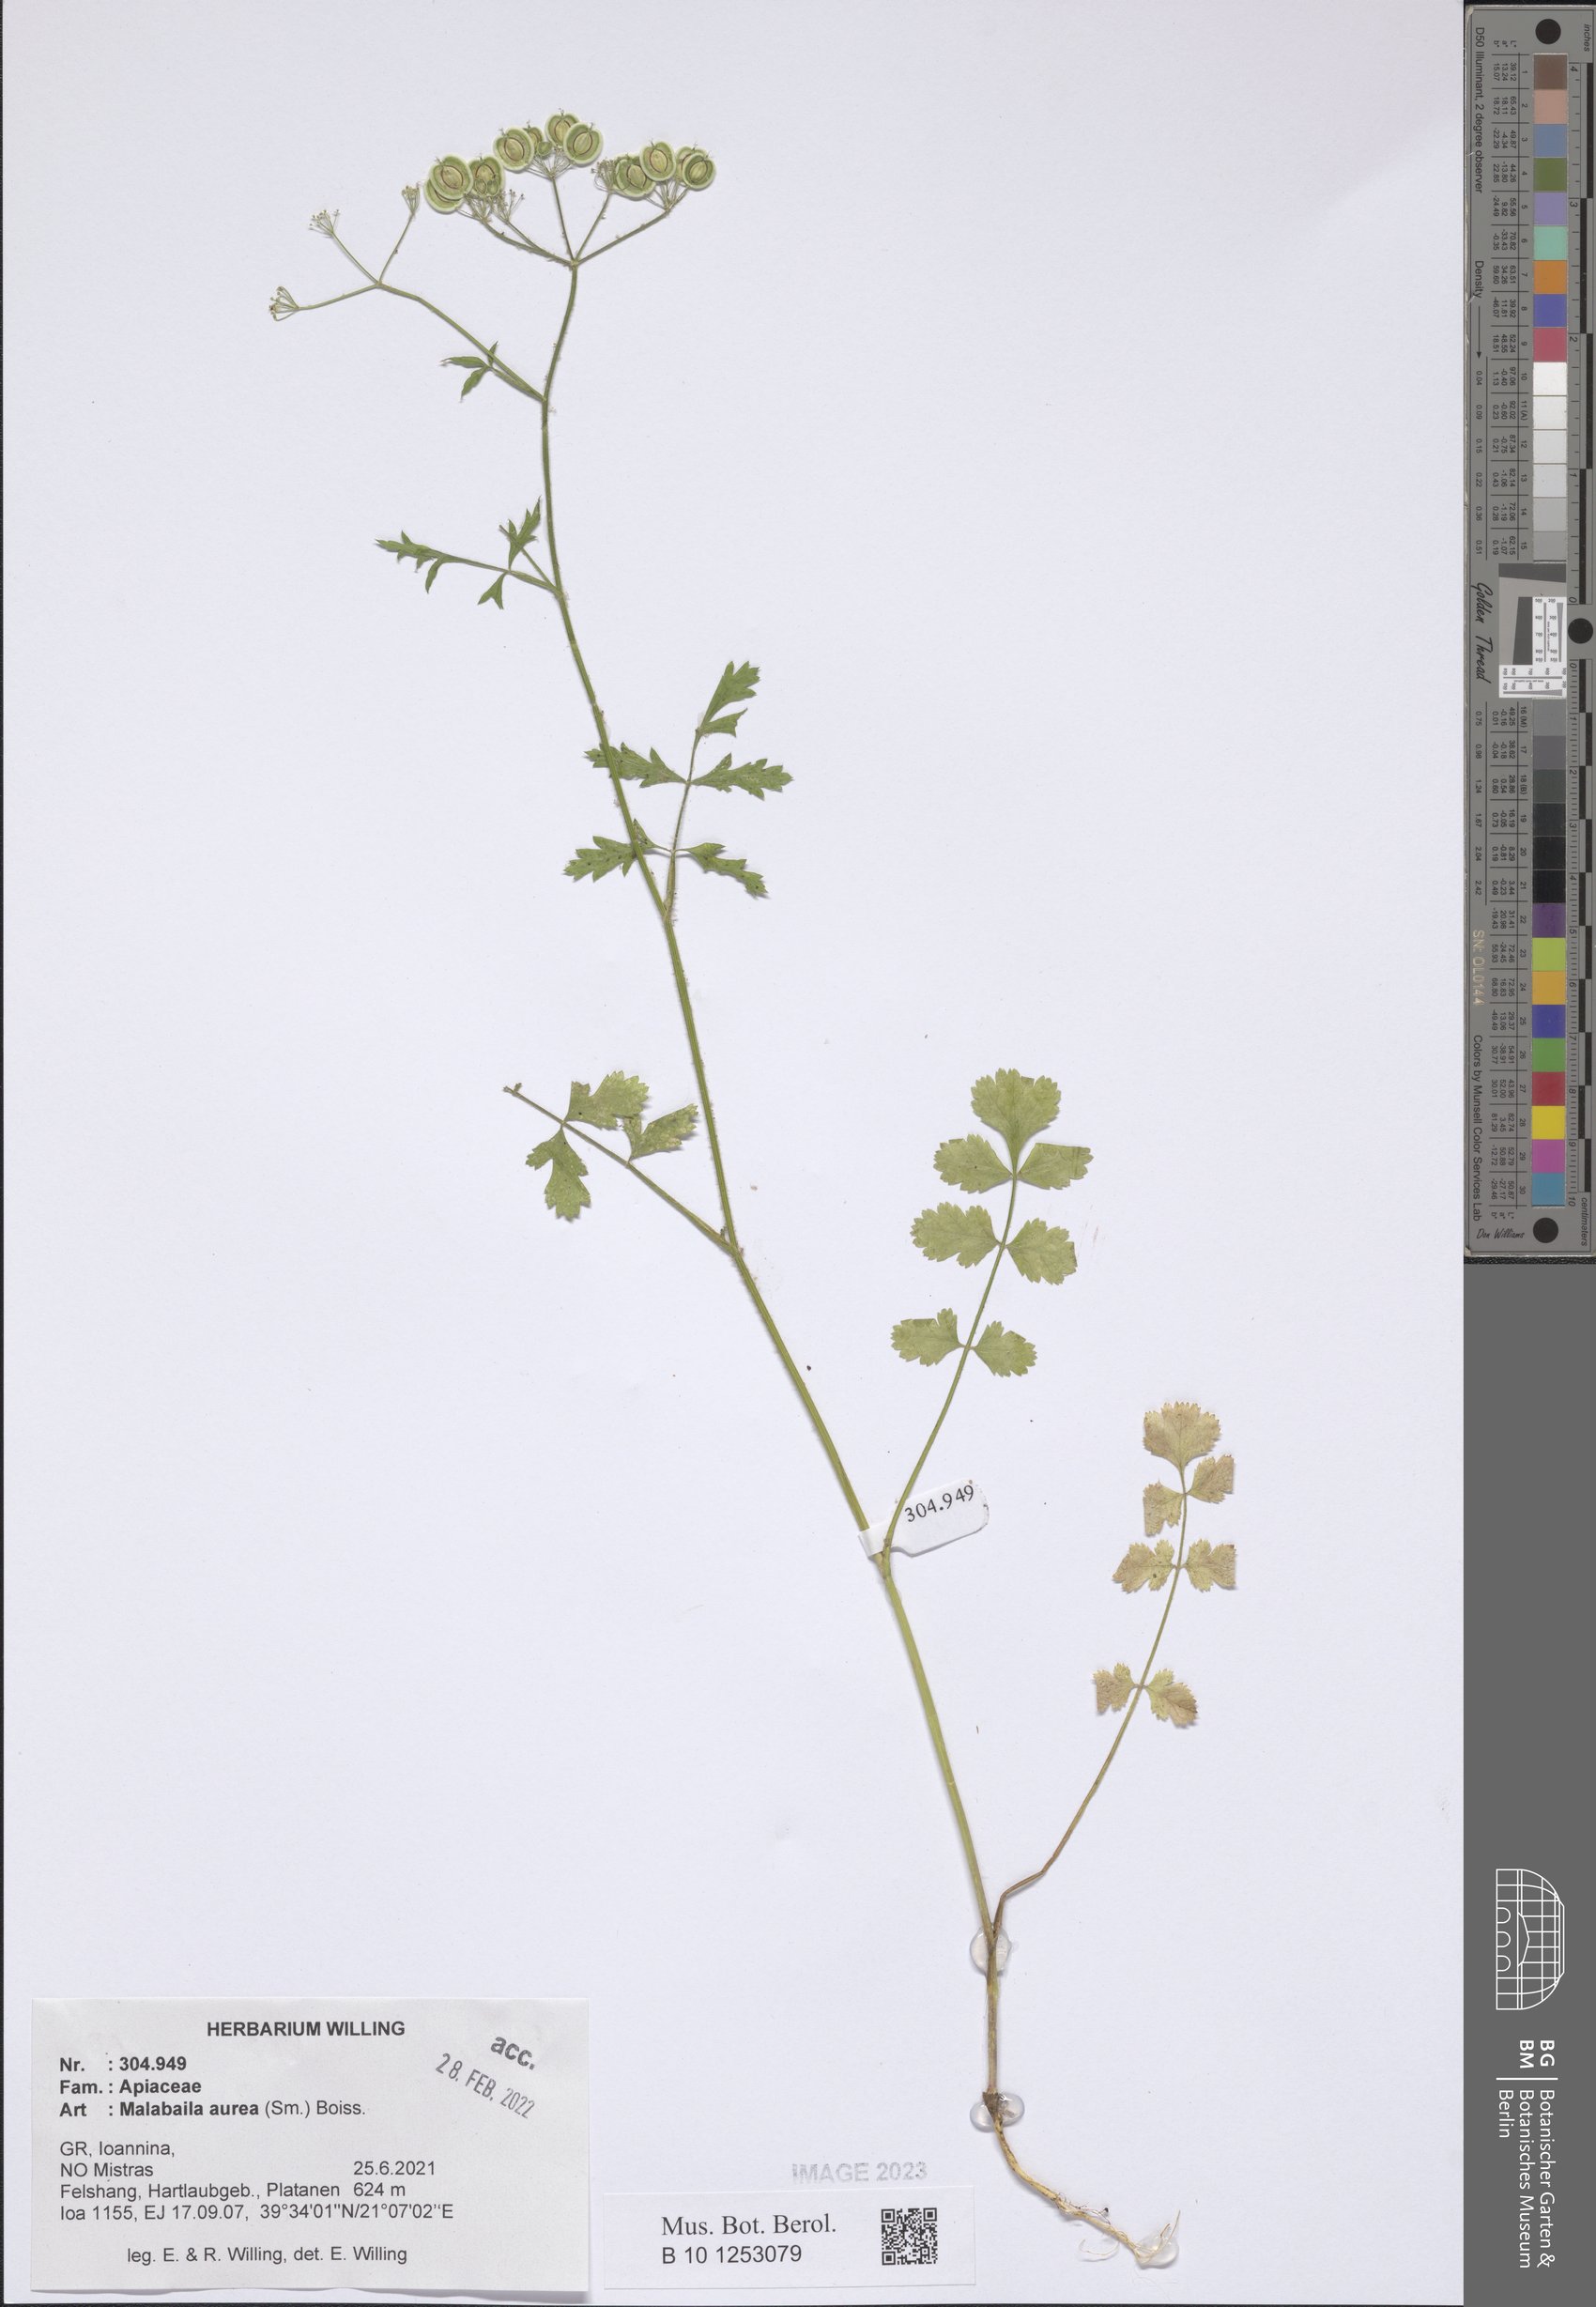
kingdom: Plantae
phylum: Tracheophyta
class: Magnoliopsida
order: Apiales
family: Apiaceae
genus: Leiotulus
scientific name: Leiotulus aureus
